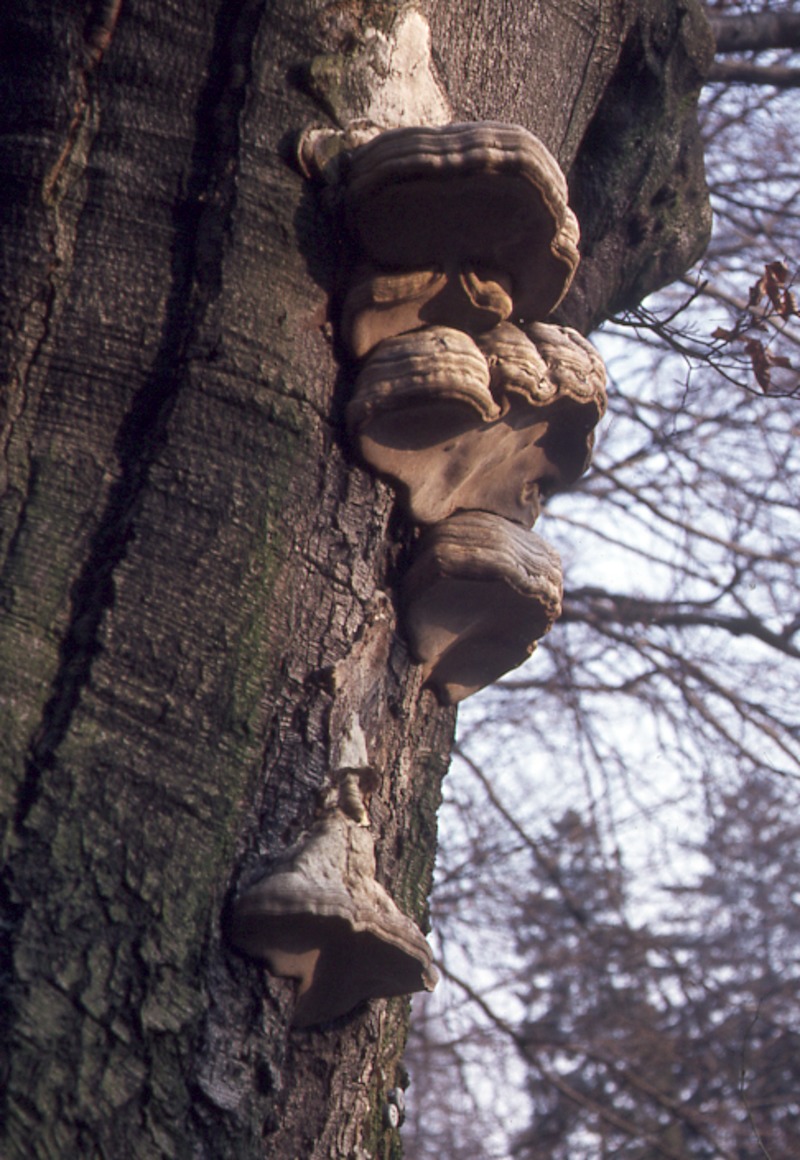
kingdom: Plantae
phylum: Tracheophyta
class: Magnoliopsida
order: Fagales
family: Fagaceae
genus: Fagus
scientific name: Fagus sylvatica
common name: Beech
